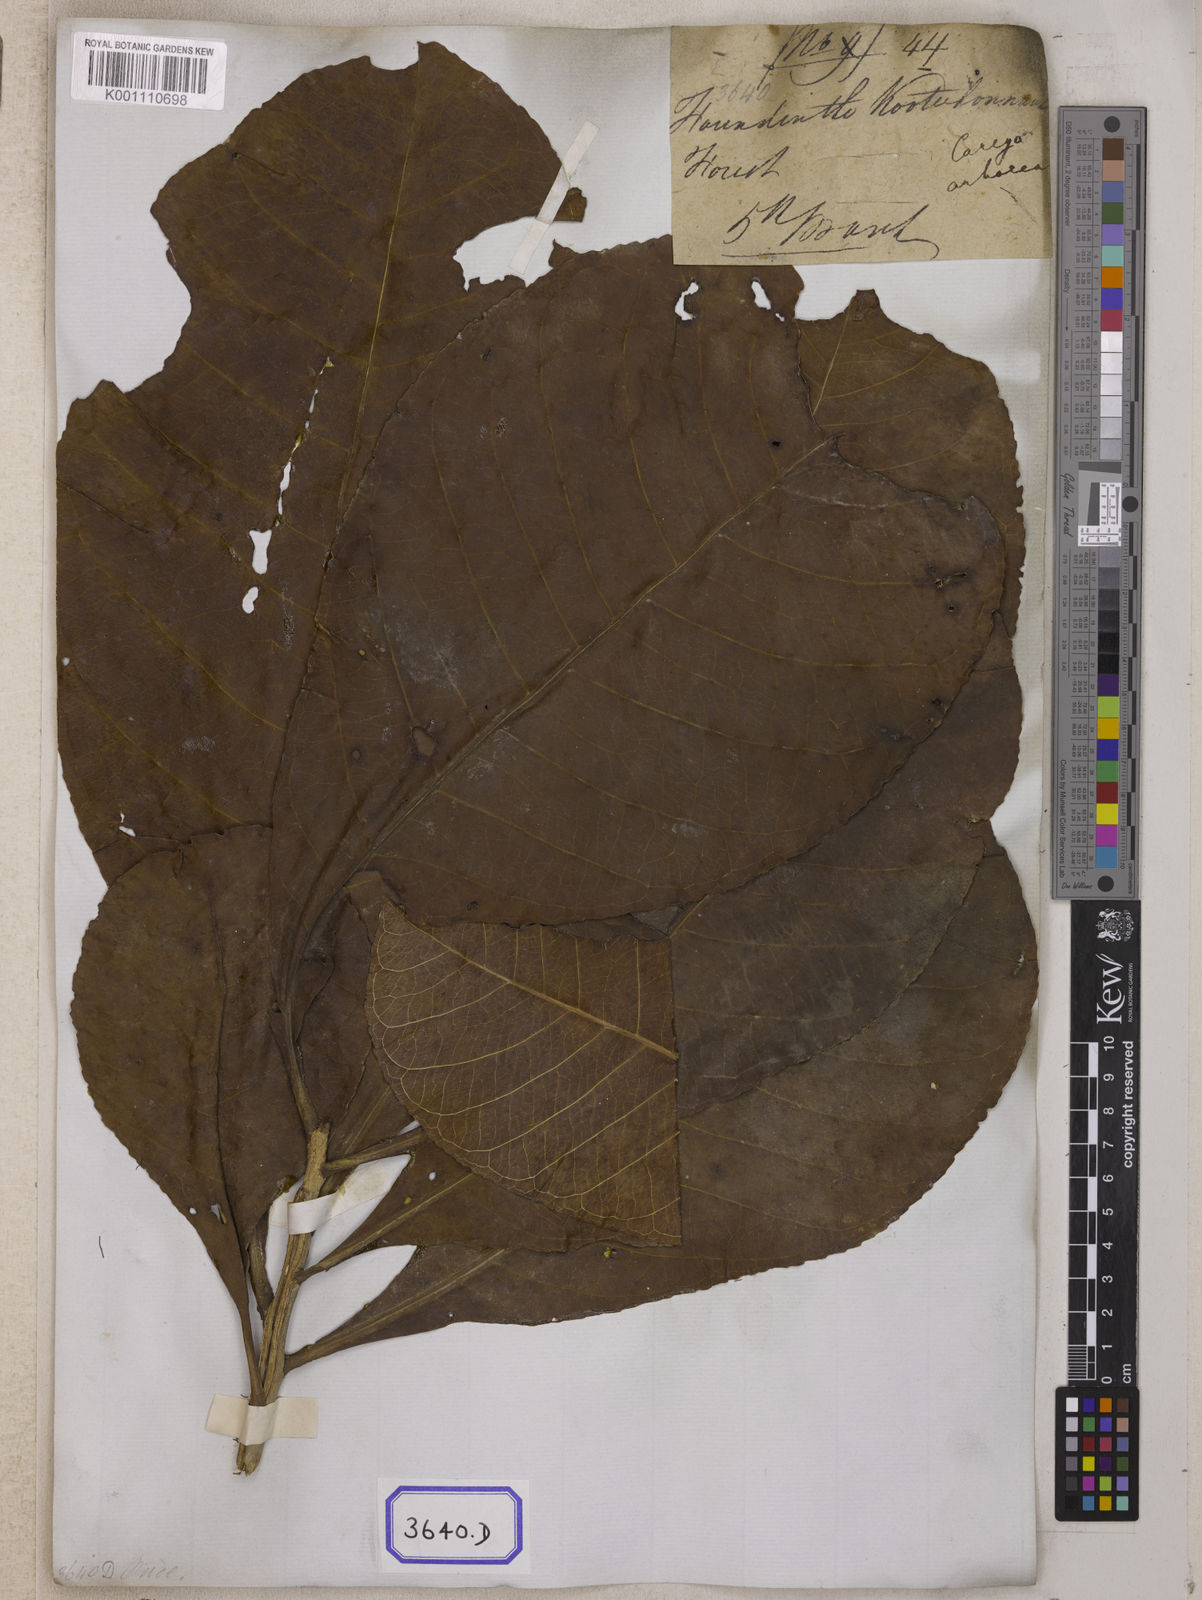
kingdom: Plantae
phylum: Tracheophyta
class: Magnoliopsida
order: Ericales
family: Lecythidaceae
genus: Careya
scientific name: Careya arborea
